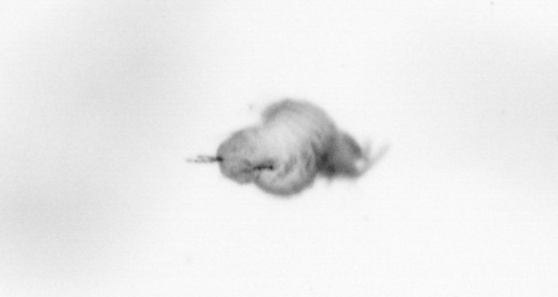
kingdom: Animalia
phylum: Annelida
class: Polychaeta
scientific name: Polychaeta
